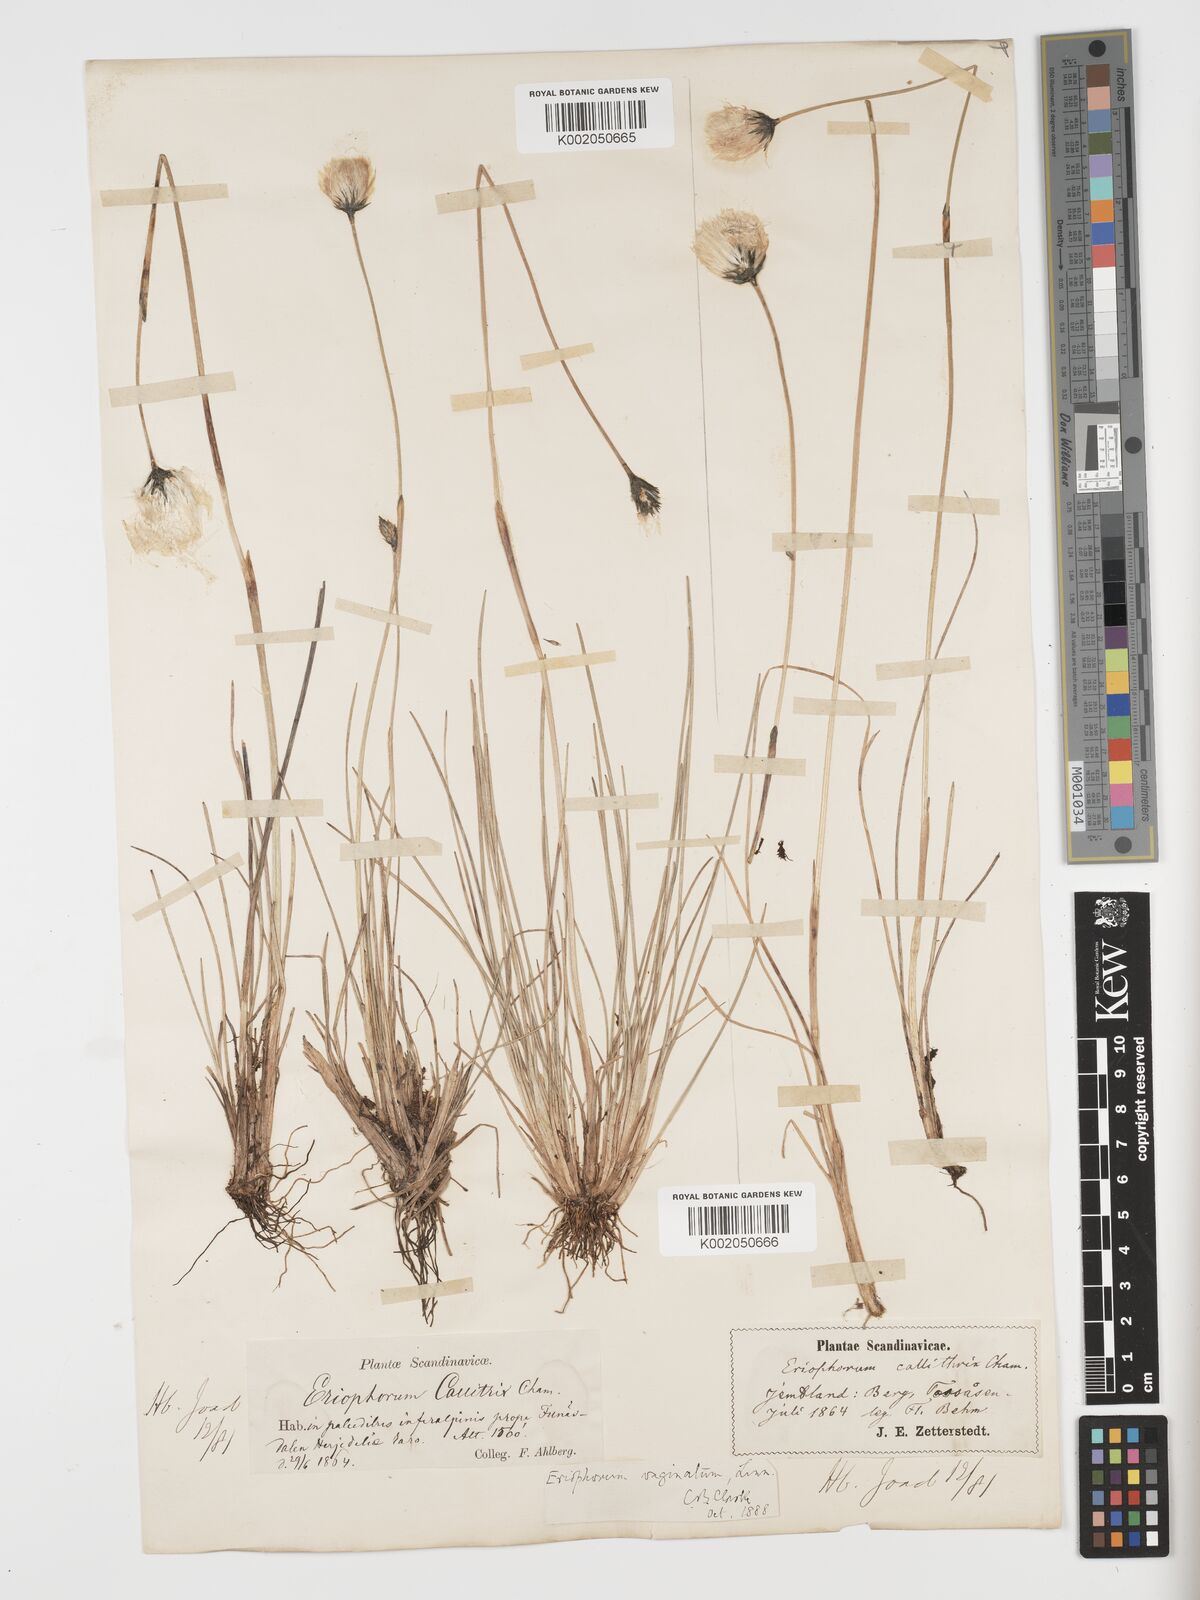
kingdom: Plantae
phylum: Tracheophyta
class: Liliopsida
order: Poales
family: Cyperaceae
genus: Eriophorum
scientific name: Eriophorum vaginatum
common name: Hare's-tail cottongrass
